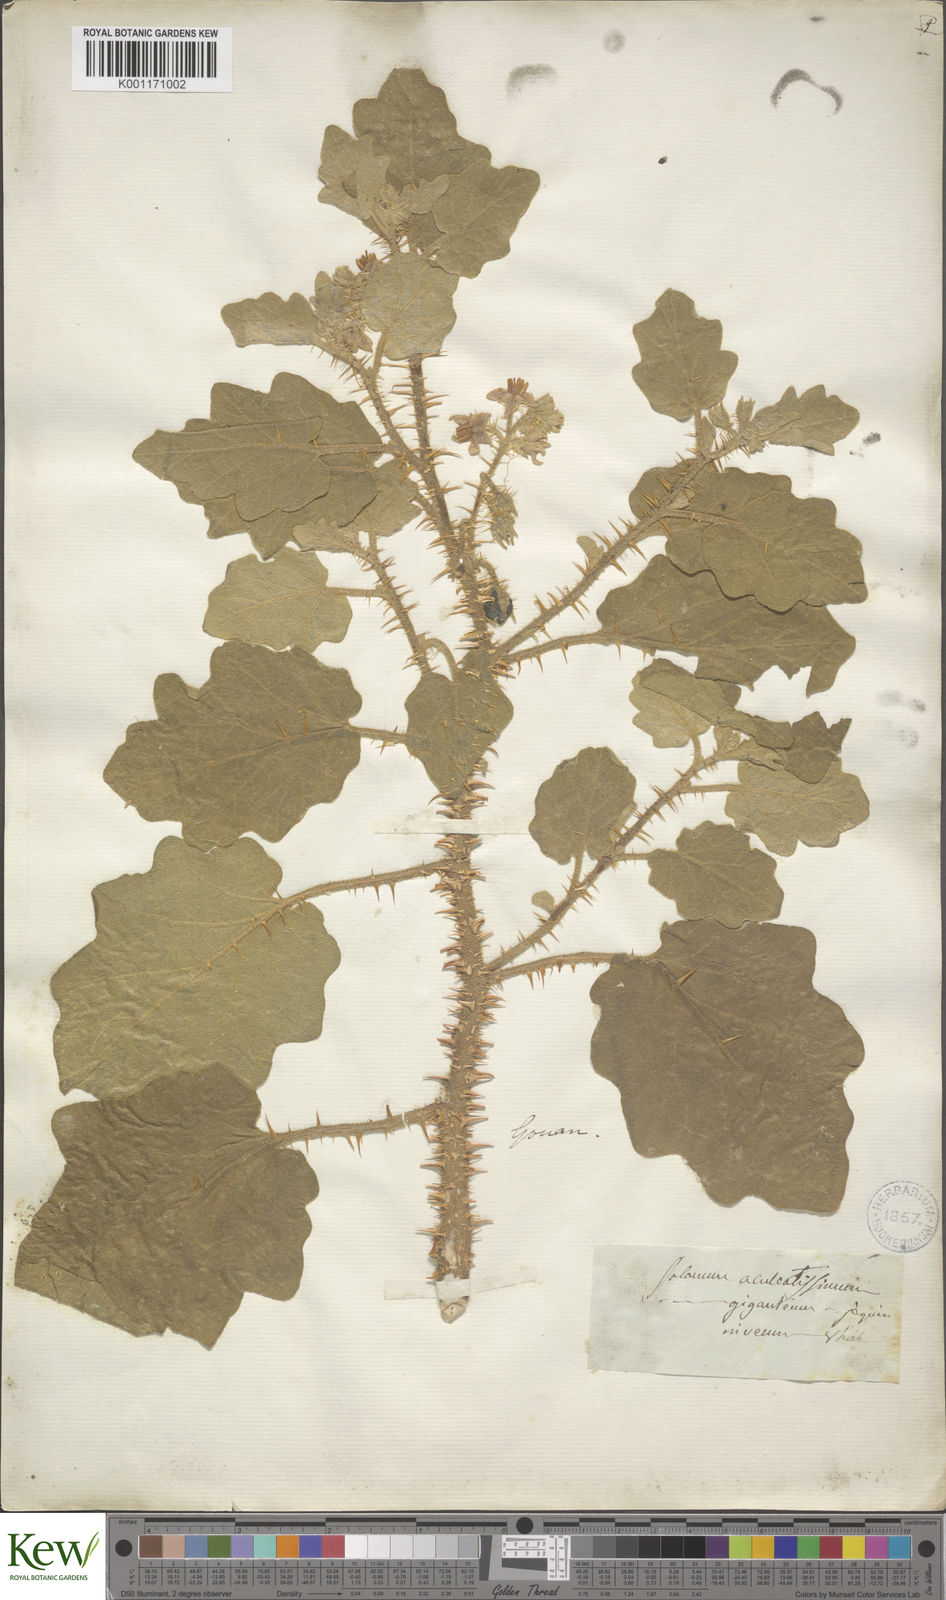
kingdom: Plantae
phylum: Tracheophyta
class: Magnoliopsida
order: Solanales
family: Solanaceae
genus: Solanum
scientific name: Solanum
